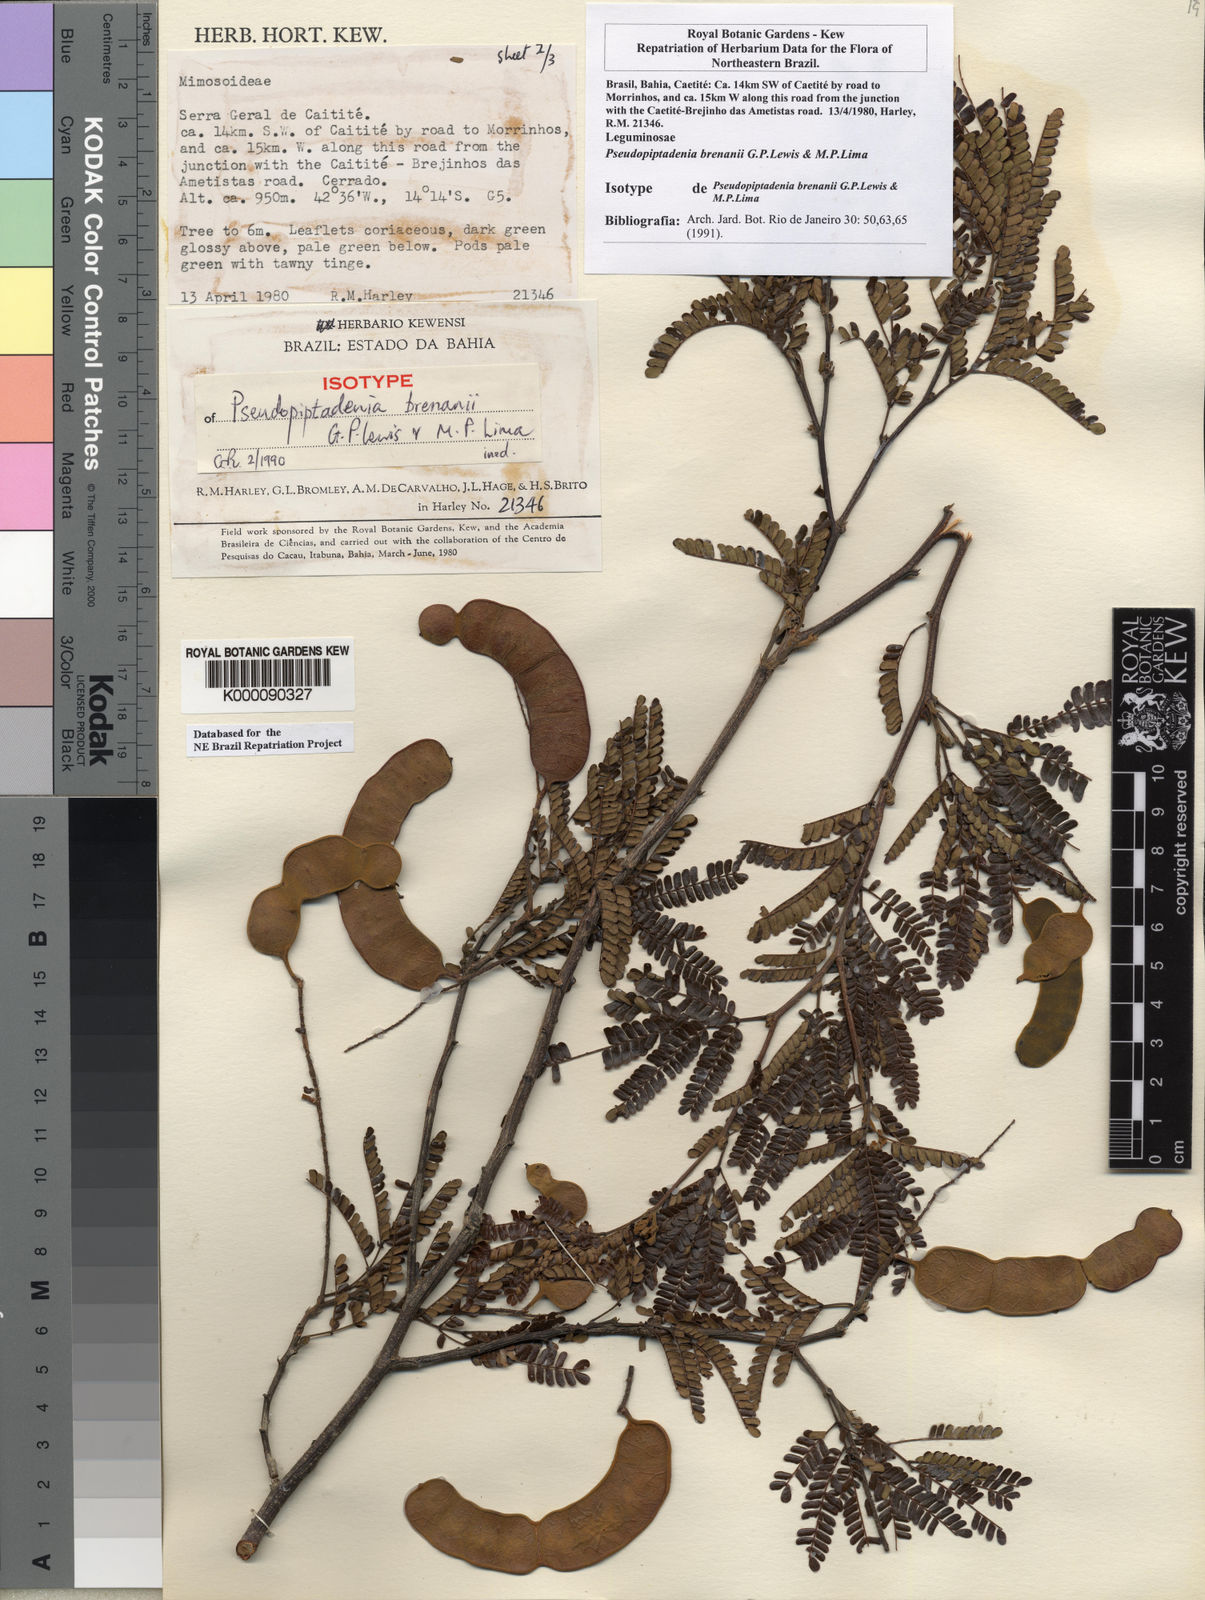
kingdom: Plantae
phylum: Tracheophyta
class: Magnoliopsida
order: Fabales
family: Fabaceae
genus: Pseudopiptadenia
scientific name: Pseudopiptadenia brenanii
